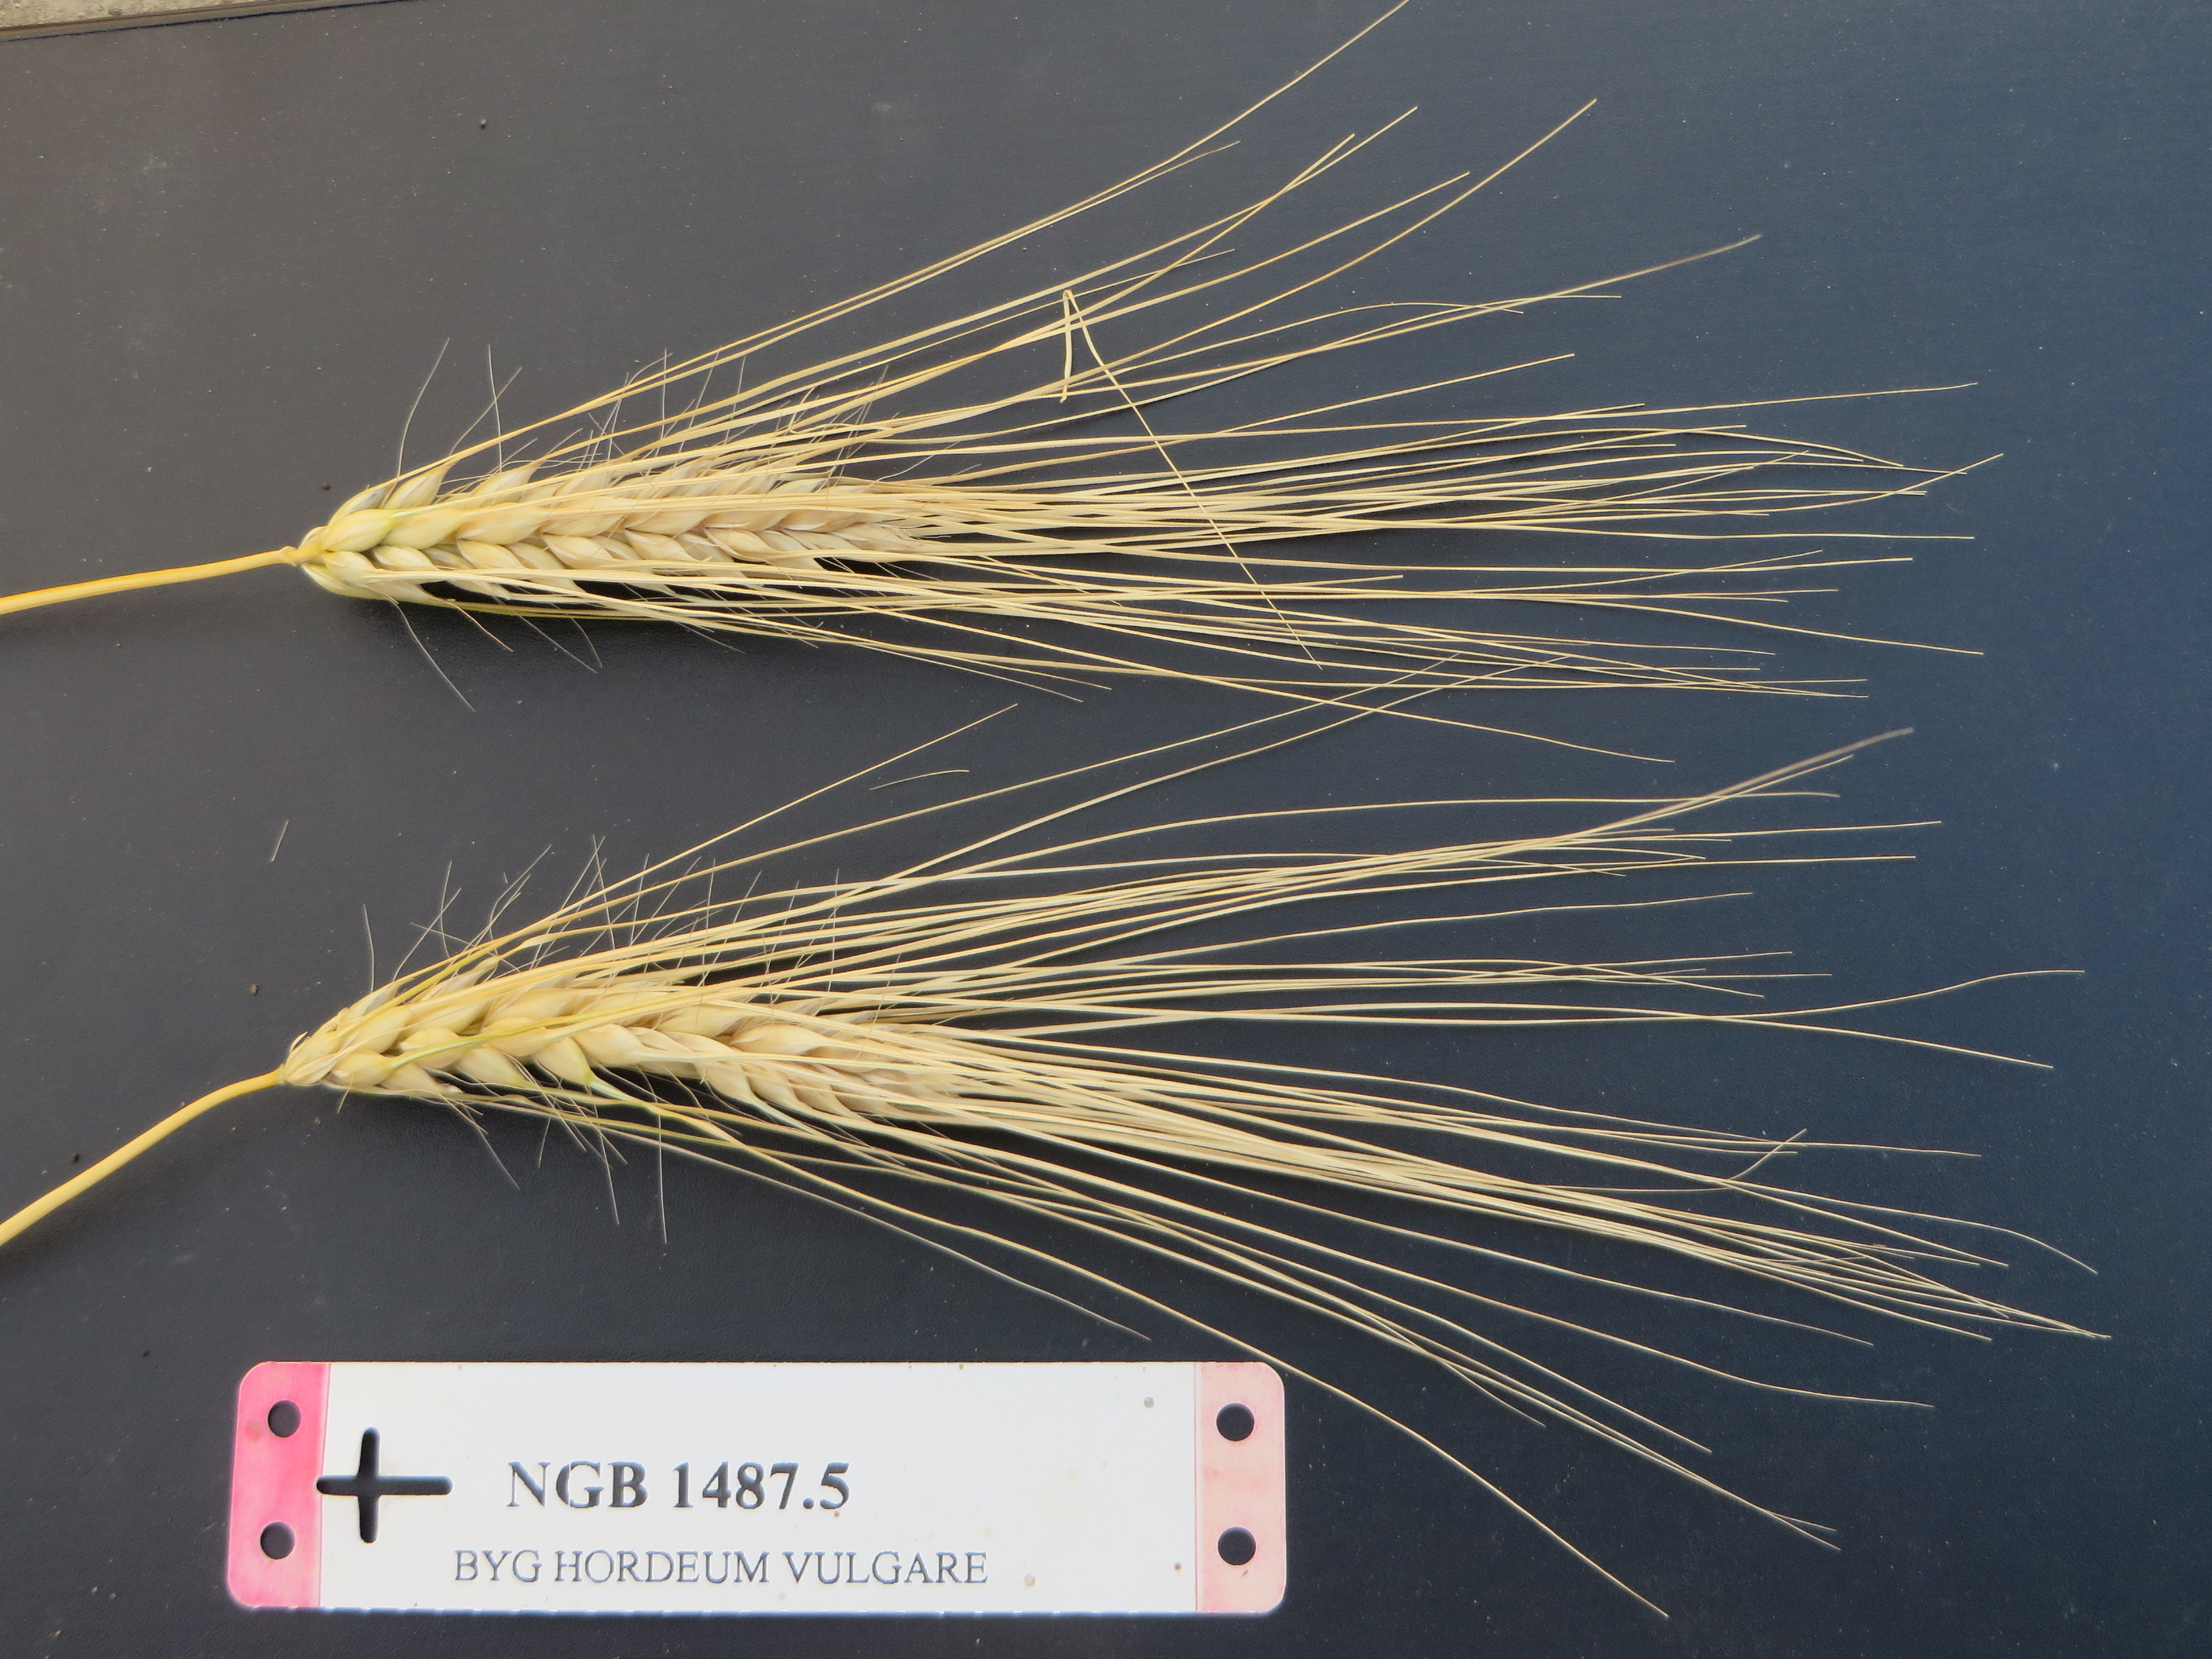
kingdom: Plantae
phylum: Tracheophyta
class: Liliopsida
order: Poales
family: Poaceae
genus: Hordeum
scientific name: Hordeum vulgare
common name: Common barley
